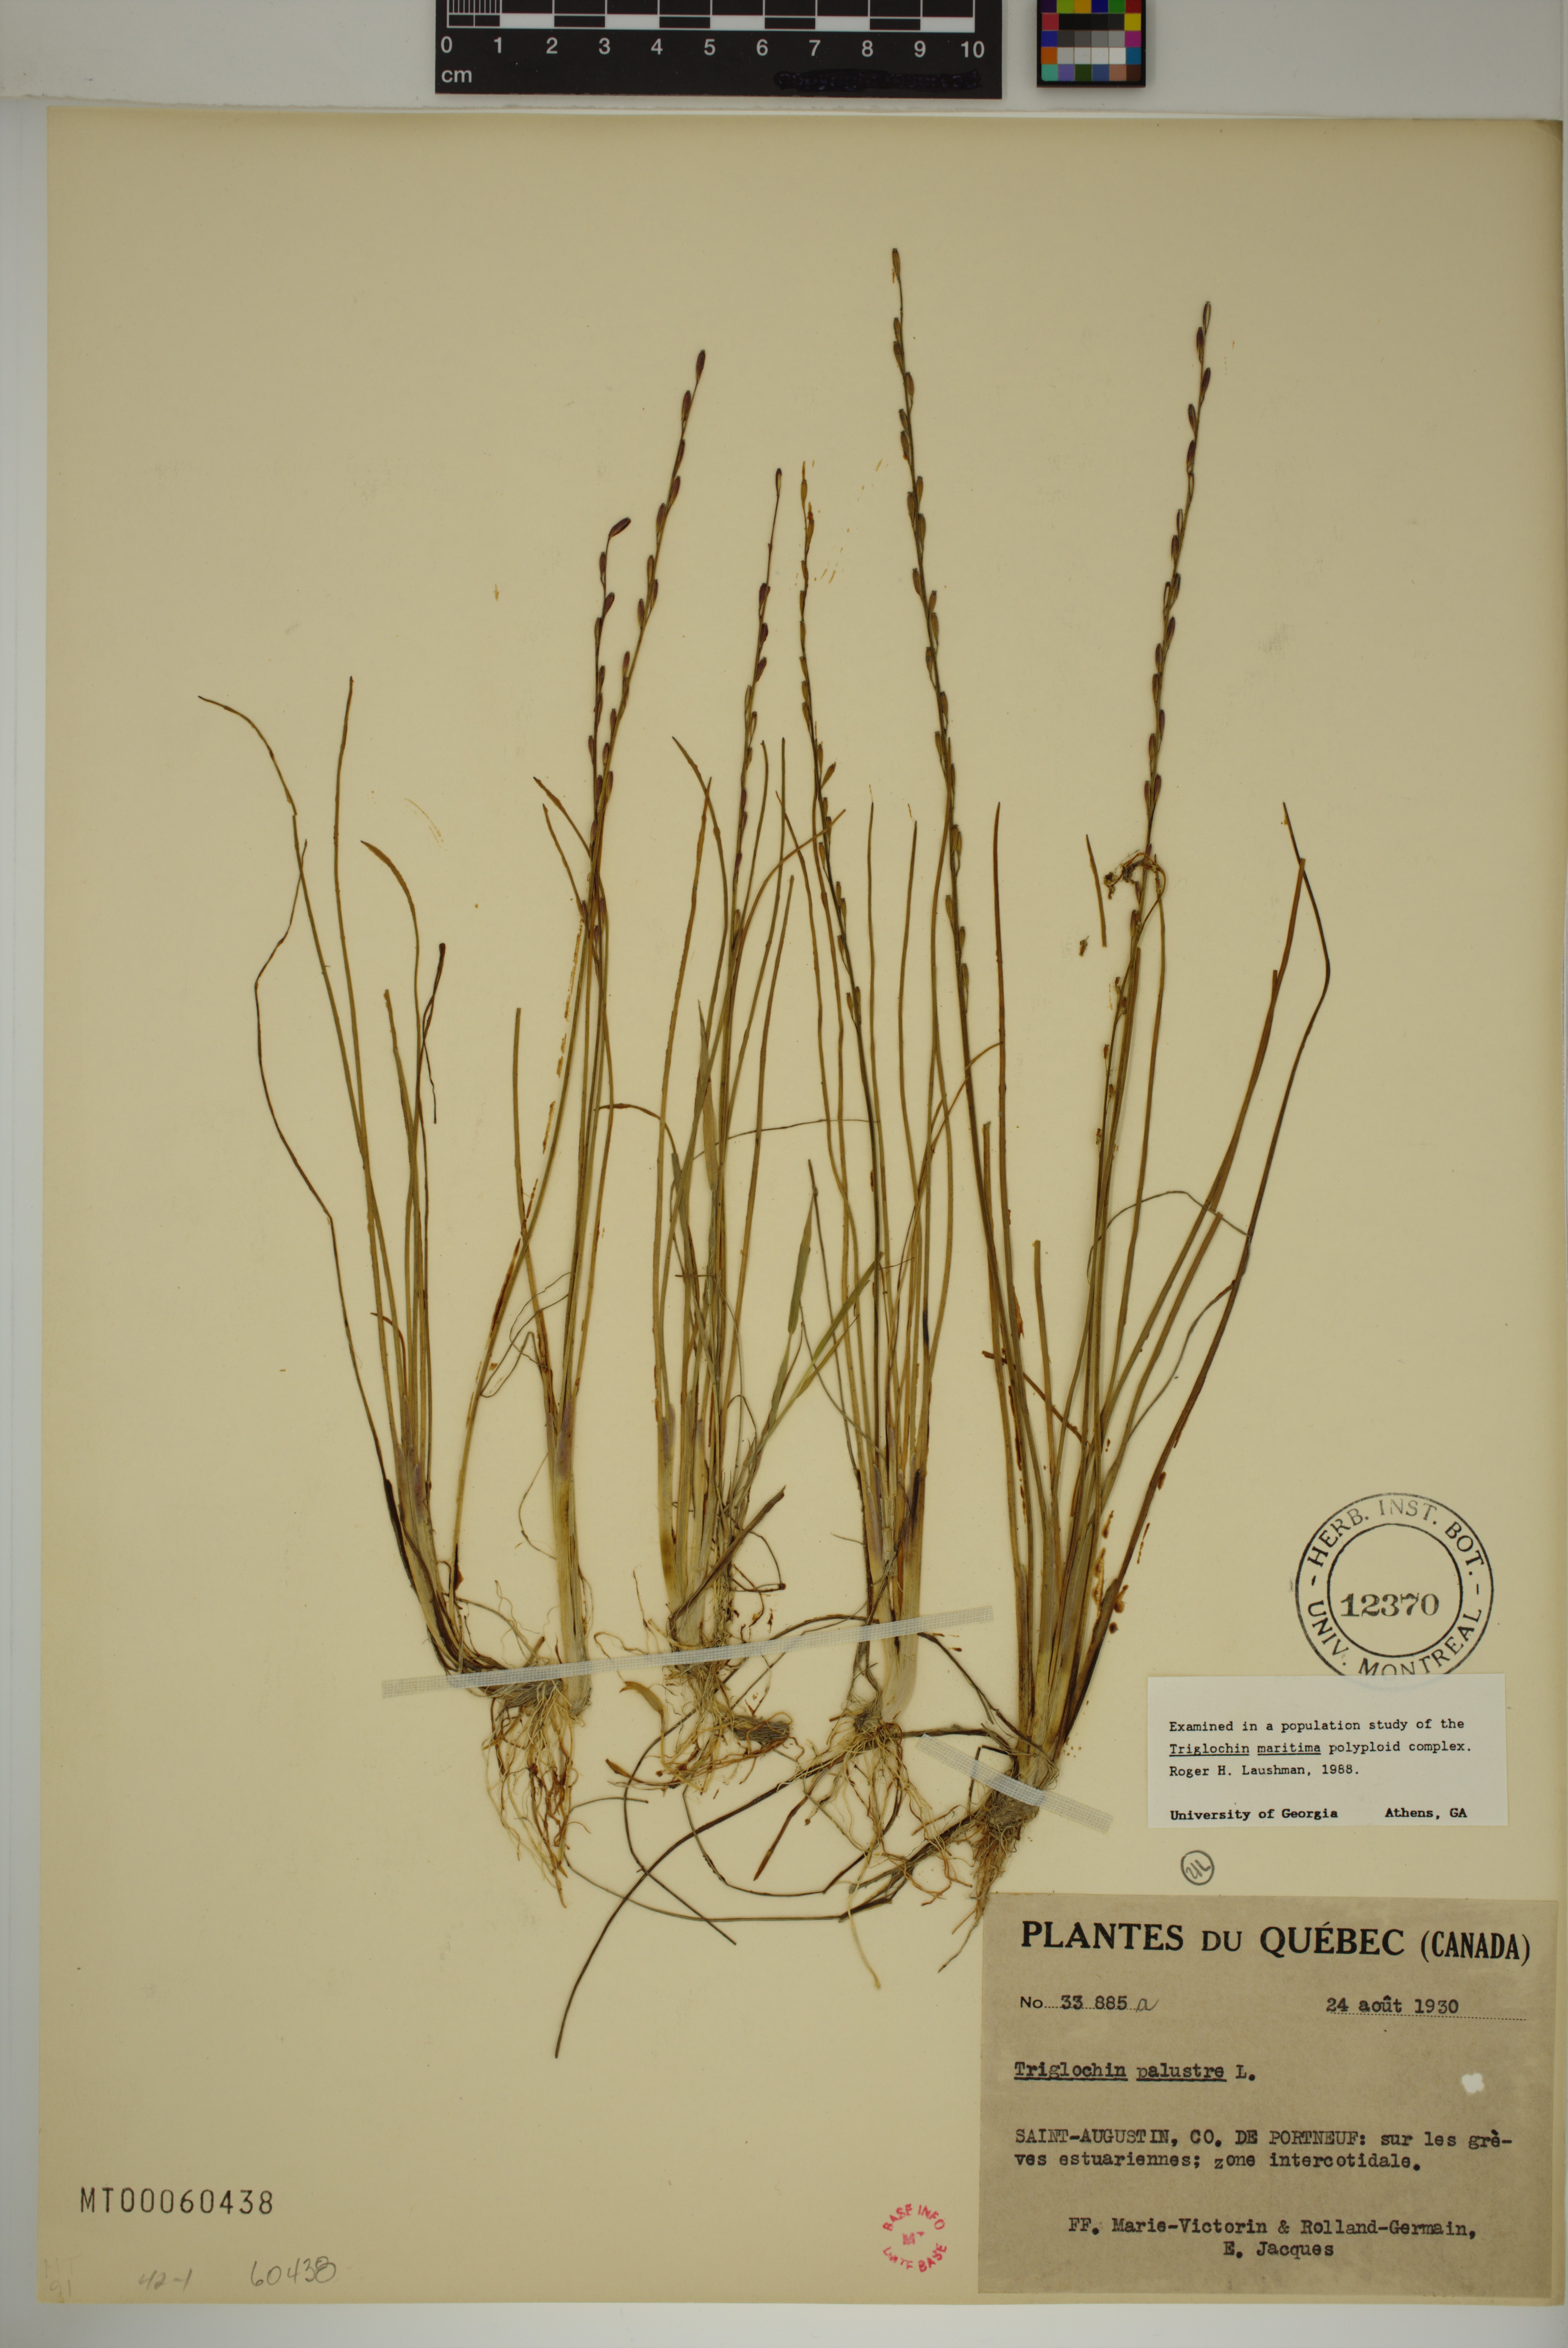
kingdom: Plantae
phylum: Tracheophyta
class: Liliopsida
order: Alismatales
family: Juncaginaceae
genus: Triglochin
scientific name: Triglochin palustris
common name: Marsh arrowgrass
